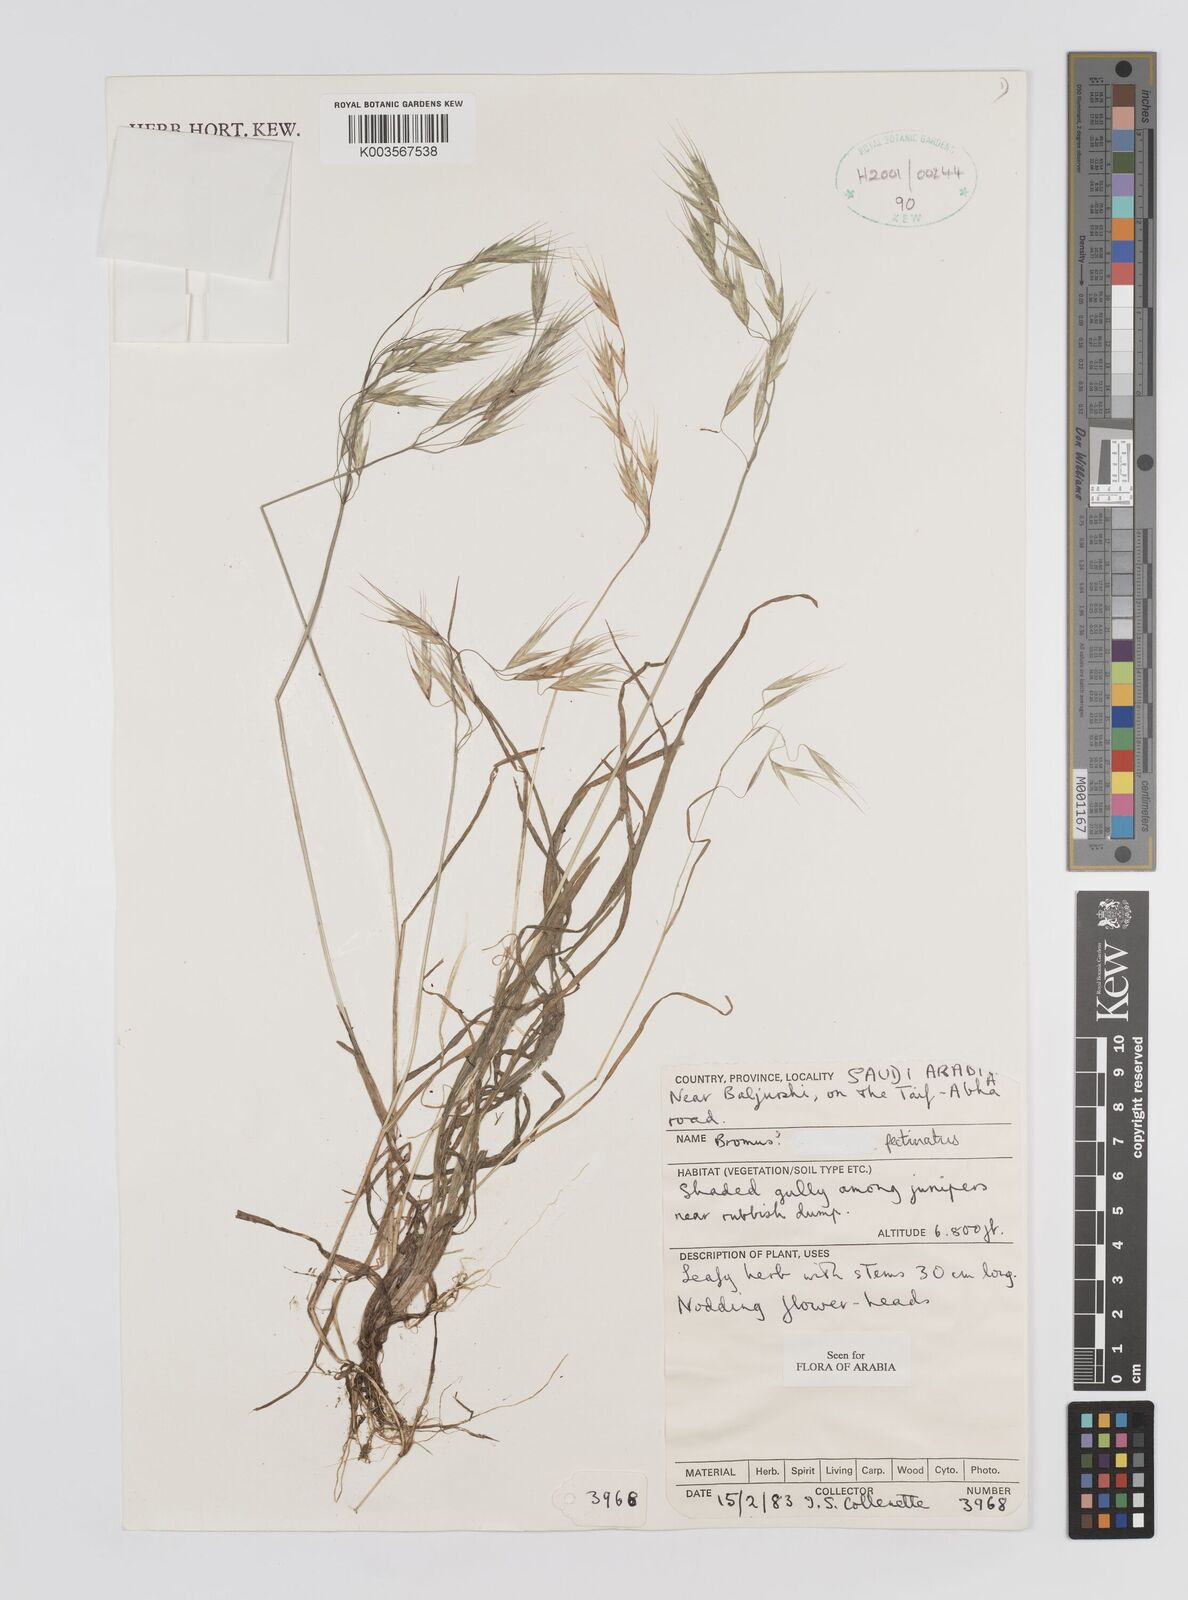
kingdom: Plantae
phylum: Tracheophyta
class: Liliopsida
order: Poales
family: Poaceae
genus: Bromus
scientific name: Bromus pectinatus
